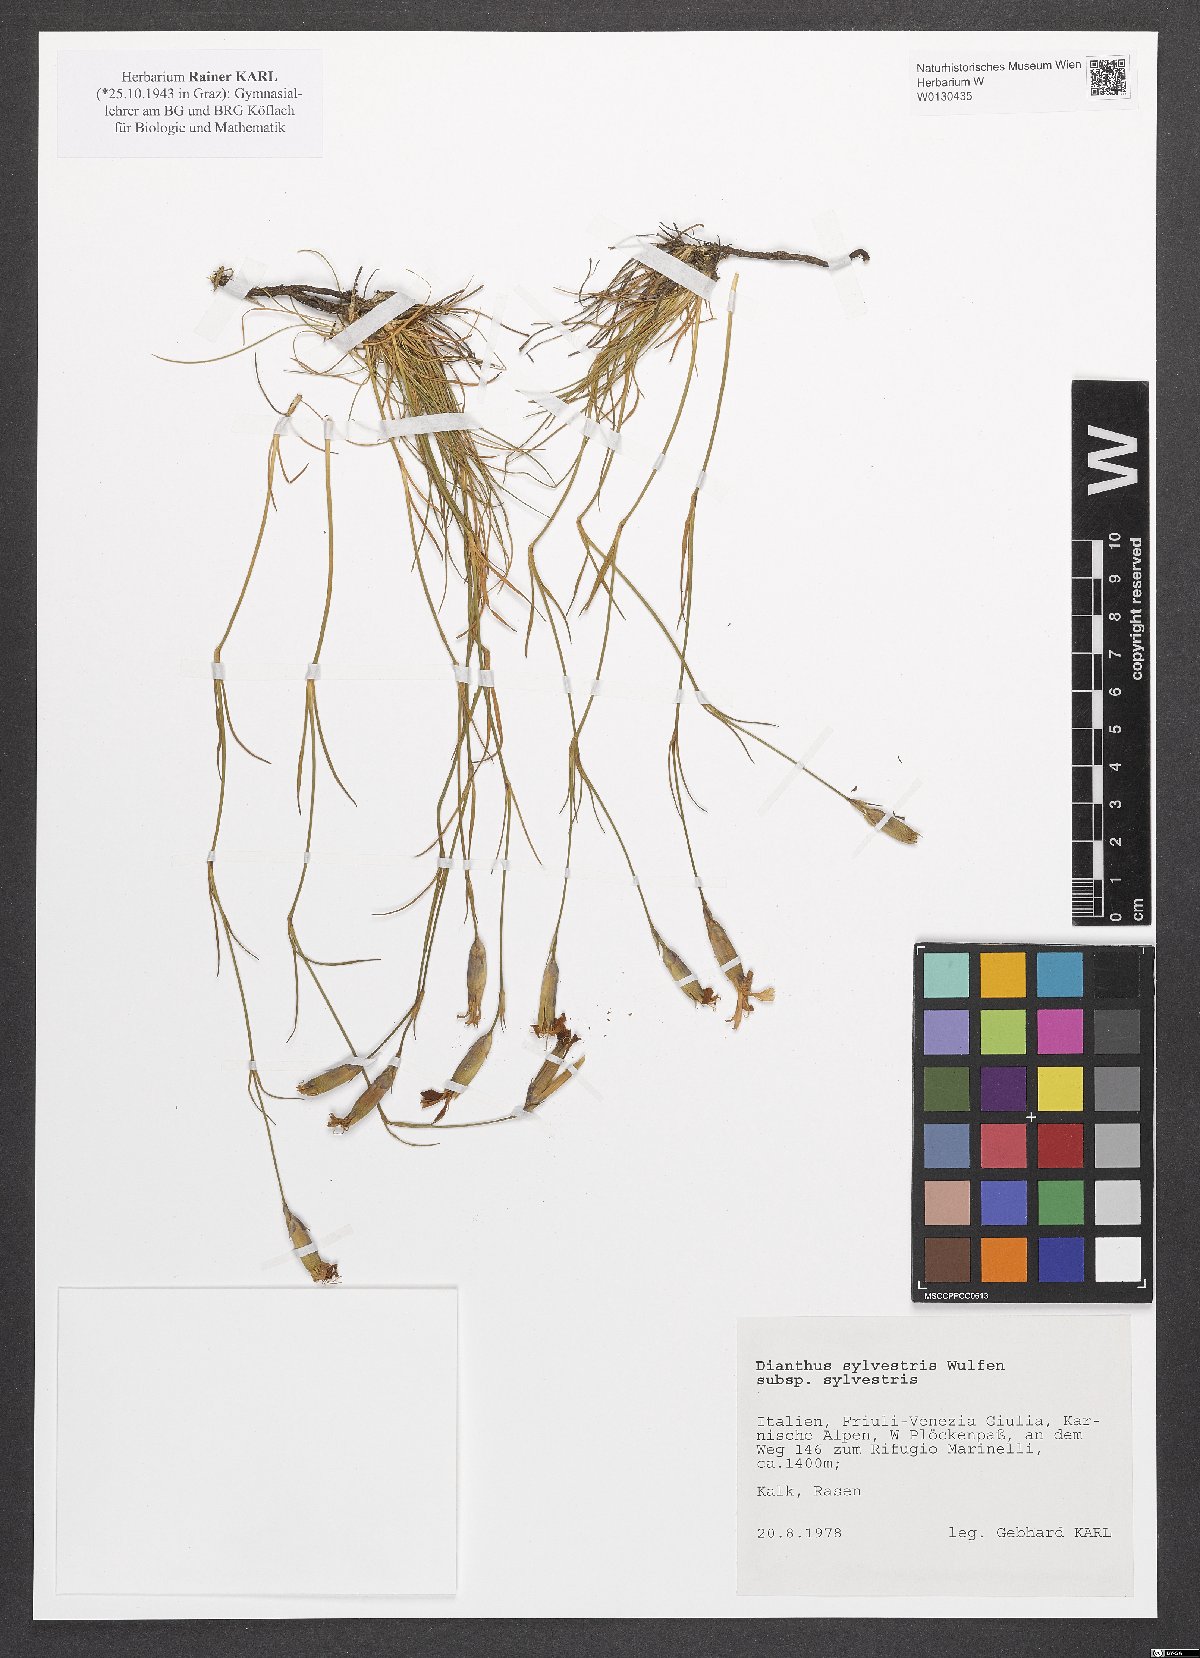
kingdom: Plantae
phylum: Tracheophyta
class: Magnoliopsida
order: Caryophyllales
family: Caryophyllaceae
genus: Dianthus
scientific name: Dianthus sylvestris
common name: Wood pink
